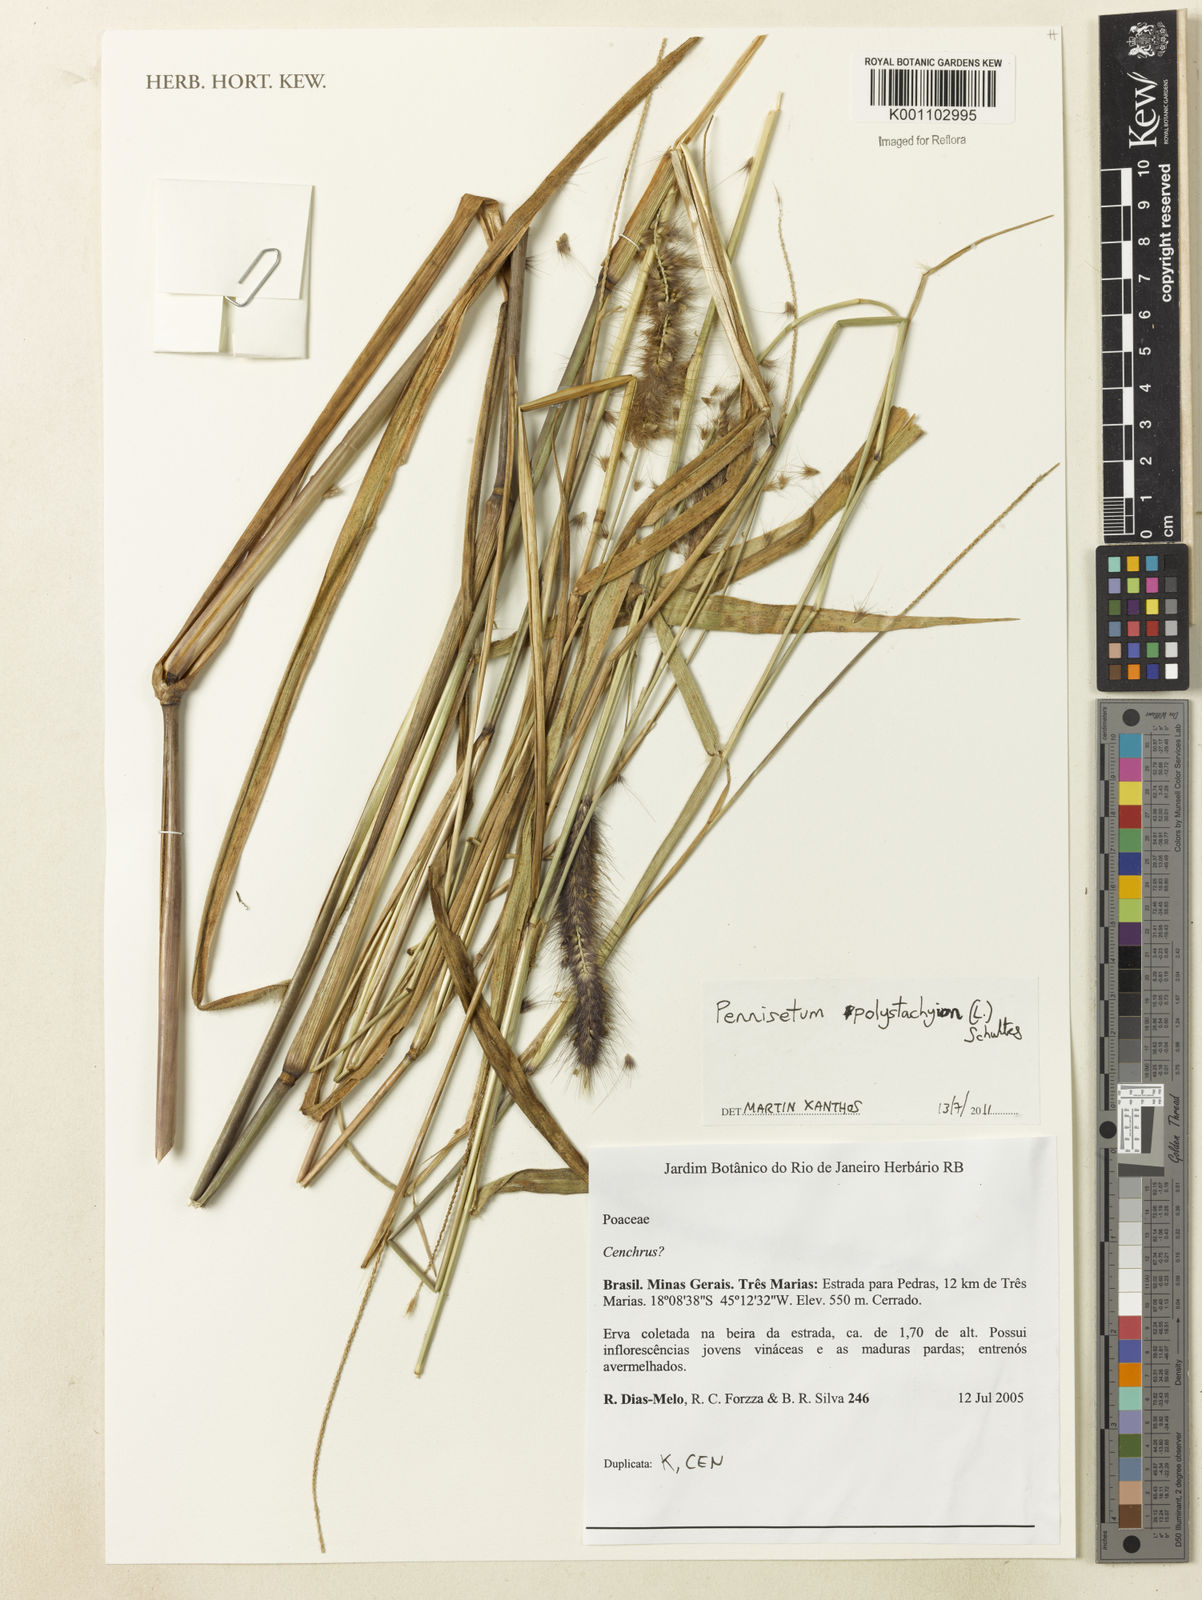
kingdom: Plantae
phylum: Tracheophyta
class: Liliopsida
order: Poales
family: Poaceae
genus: Setaria
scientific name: Setaria parviflora
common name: Knotroot bristle-grass
